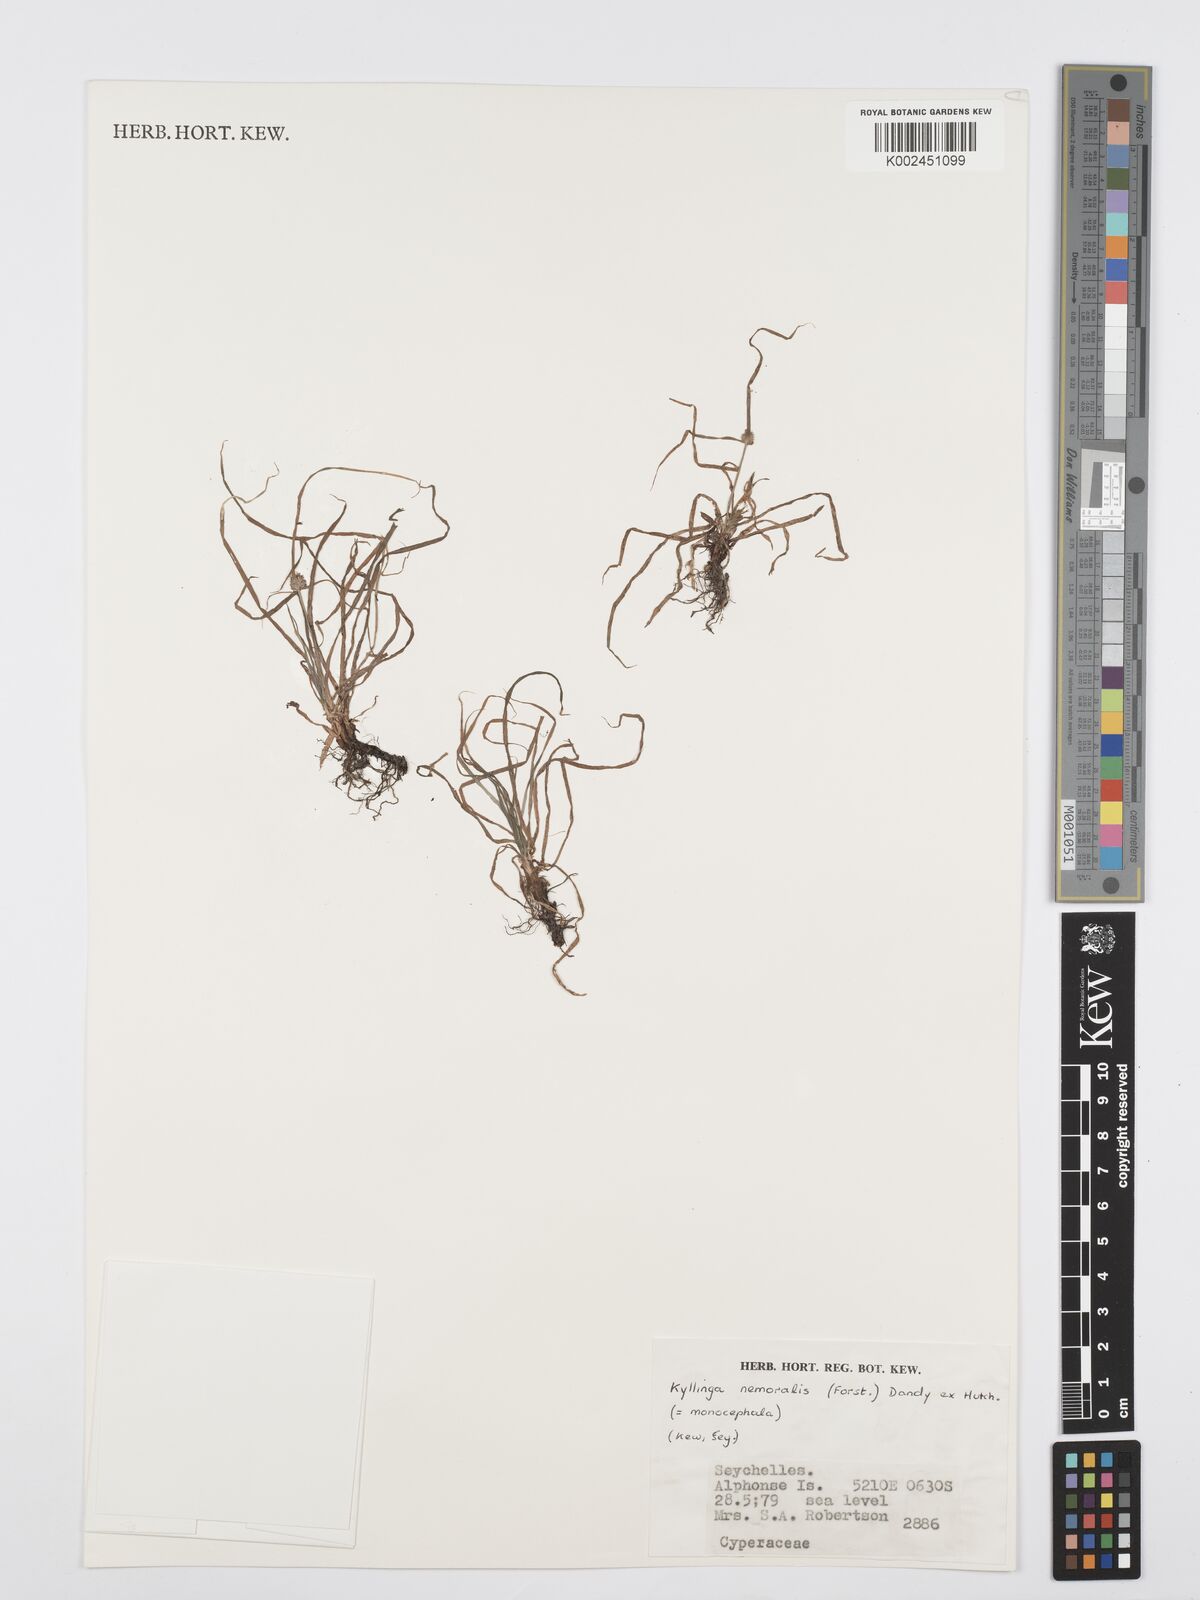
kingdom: Plantae
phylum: Tracheophyta
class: Liliopsida
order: Poales
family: Cyperaceae
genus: Cyperus
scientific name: Cyperus nemoralis
